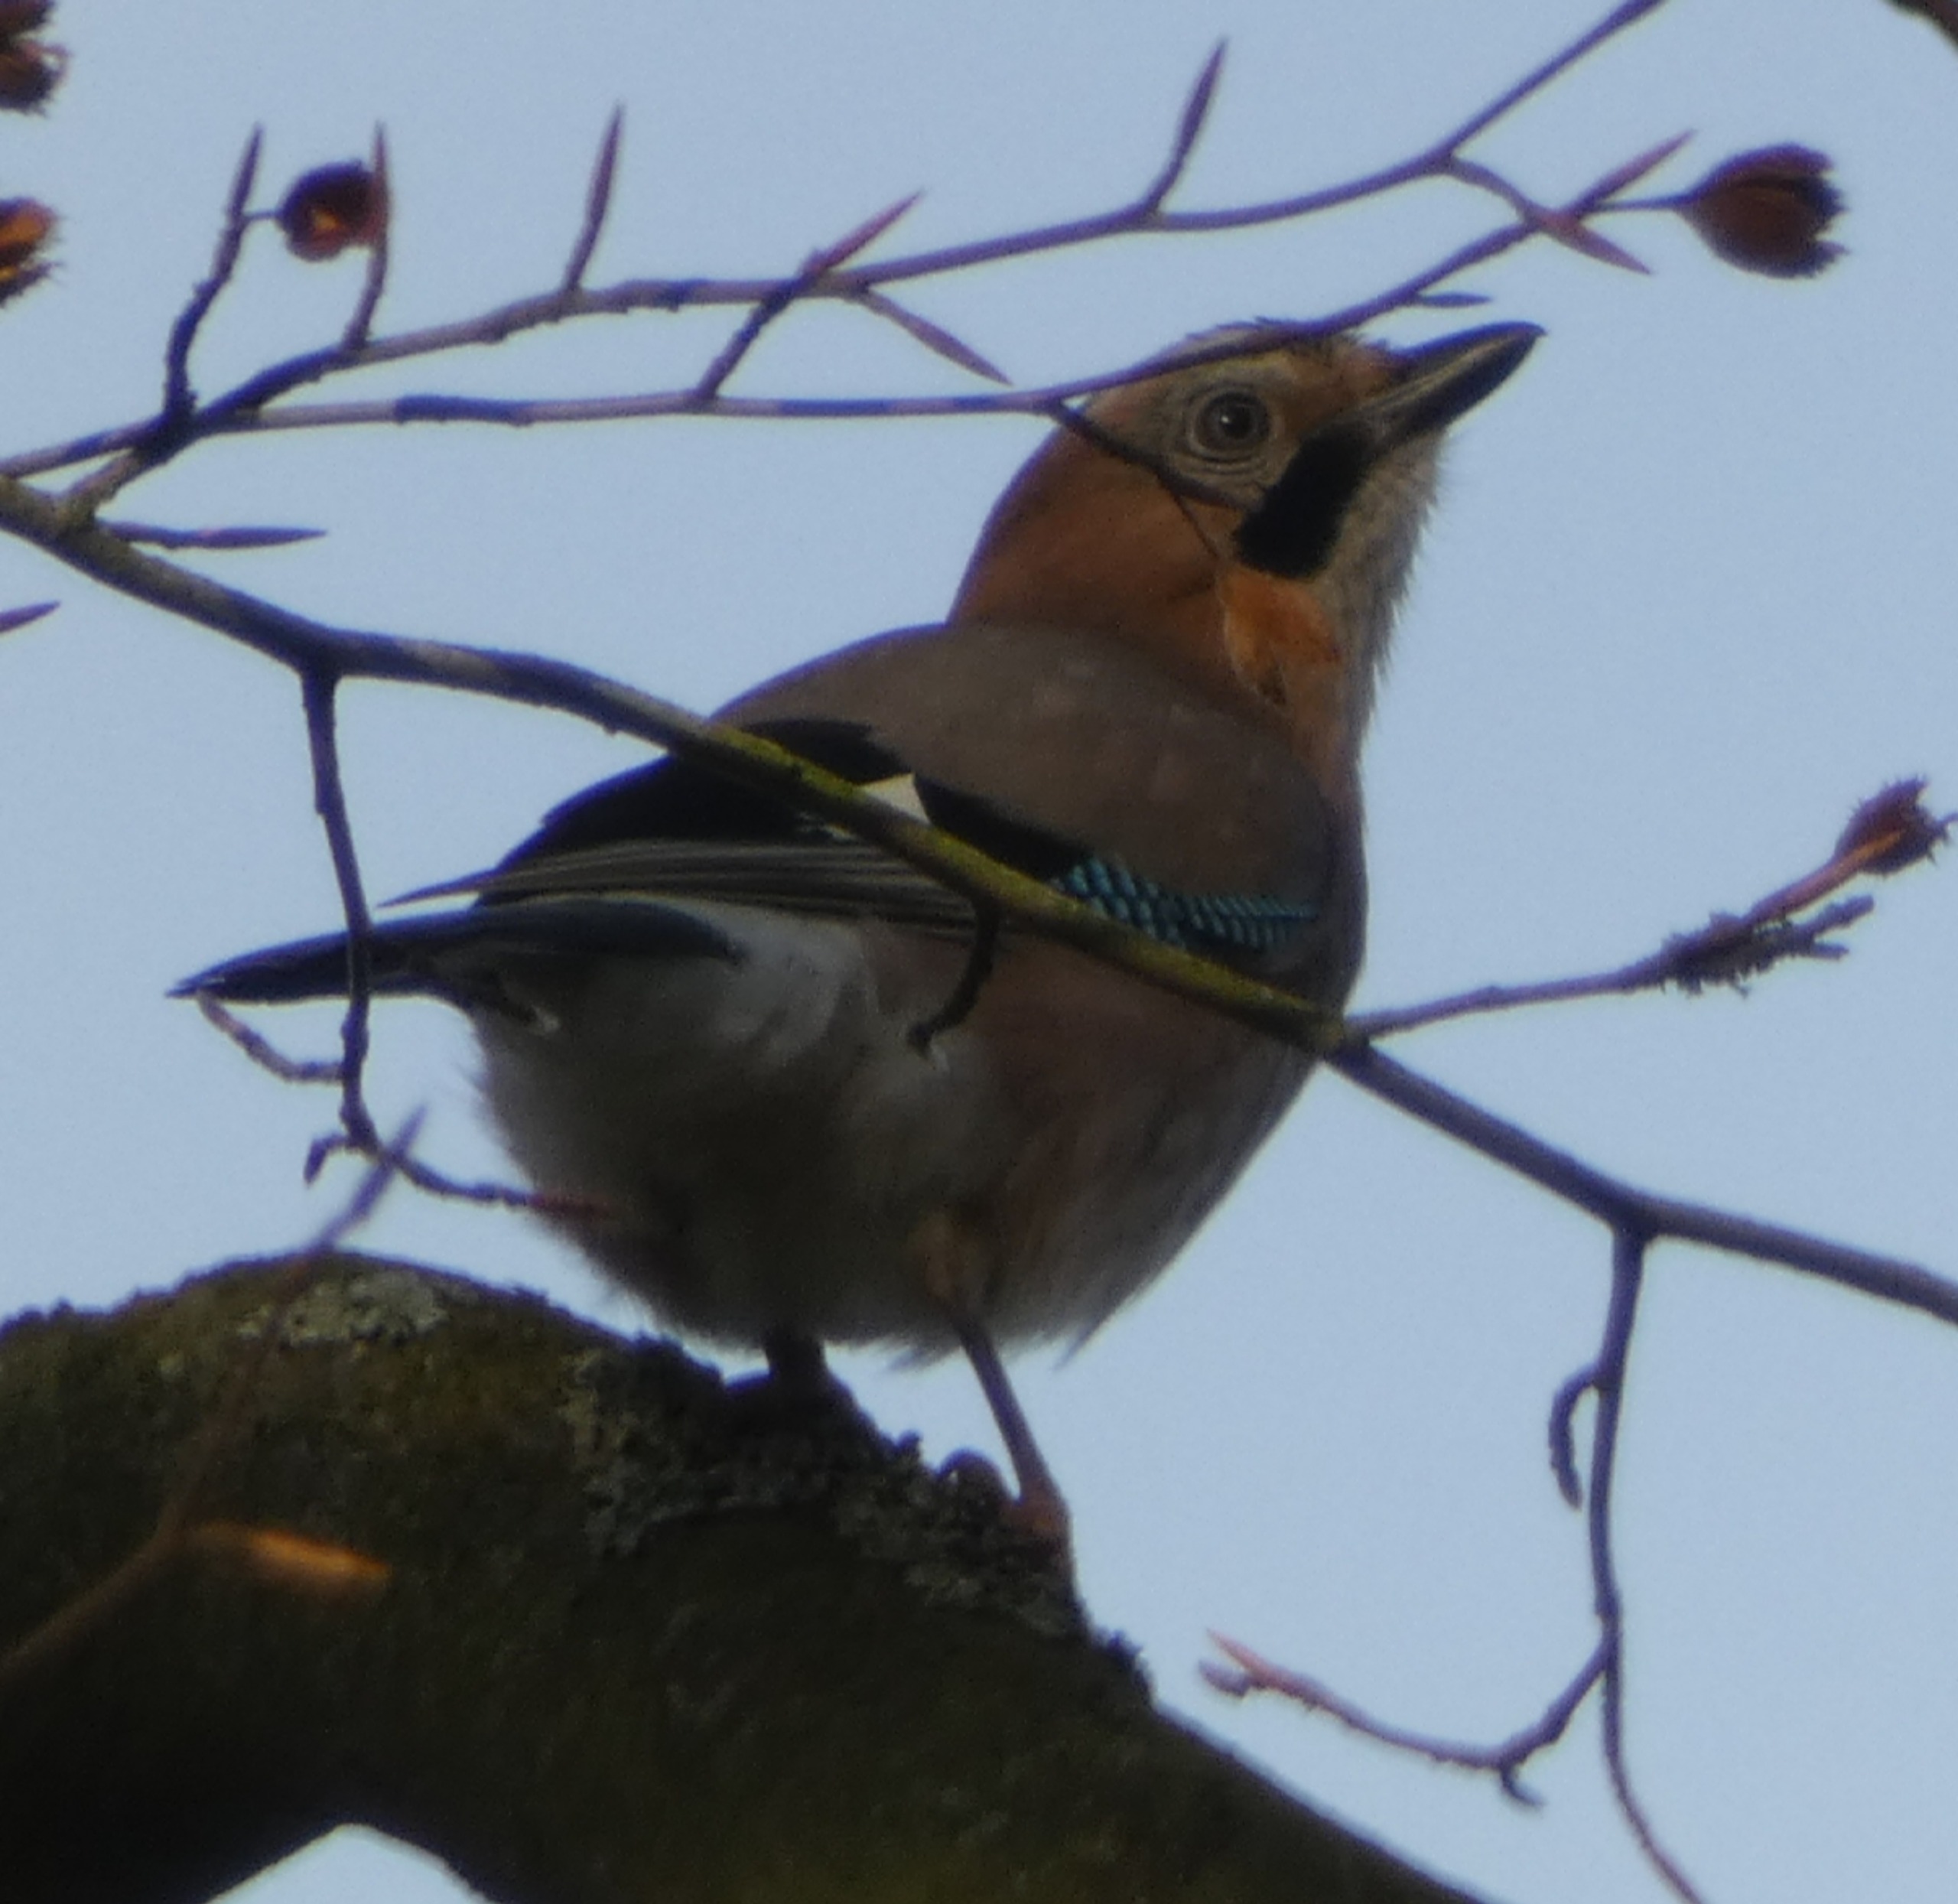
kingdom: Animalia
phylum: Chordata
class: Aves
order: Passeriformes
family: Corvidae
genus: Garrulus
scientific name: Garrulus glandarius
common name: Skovskade
